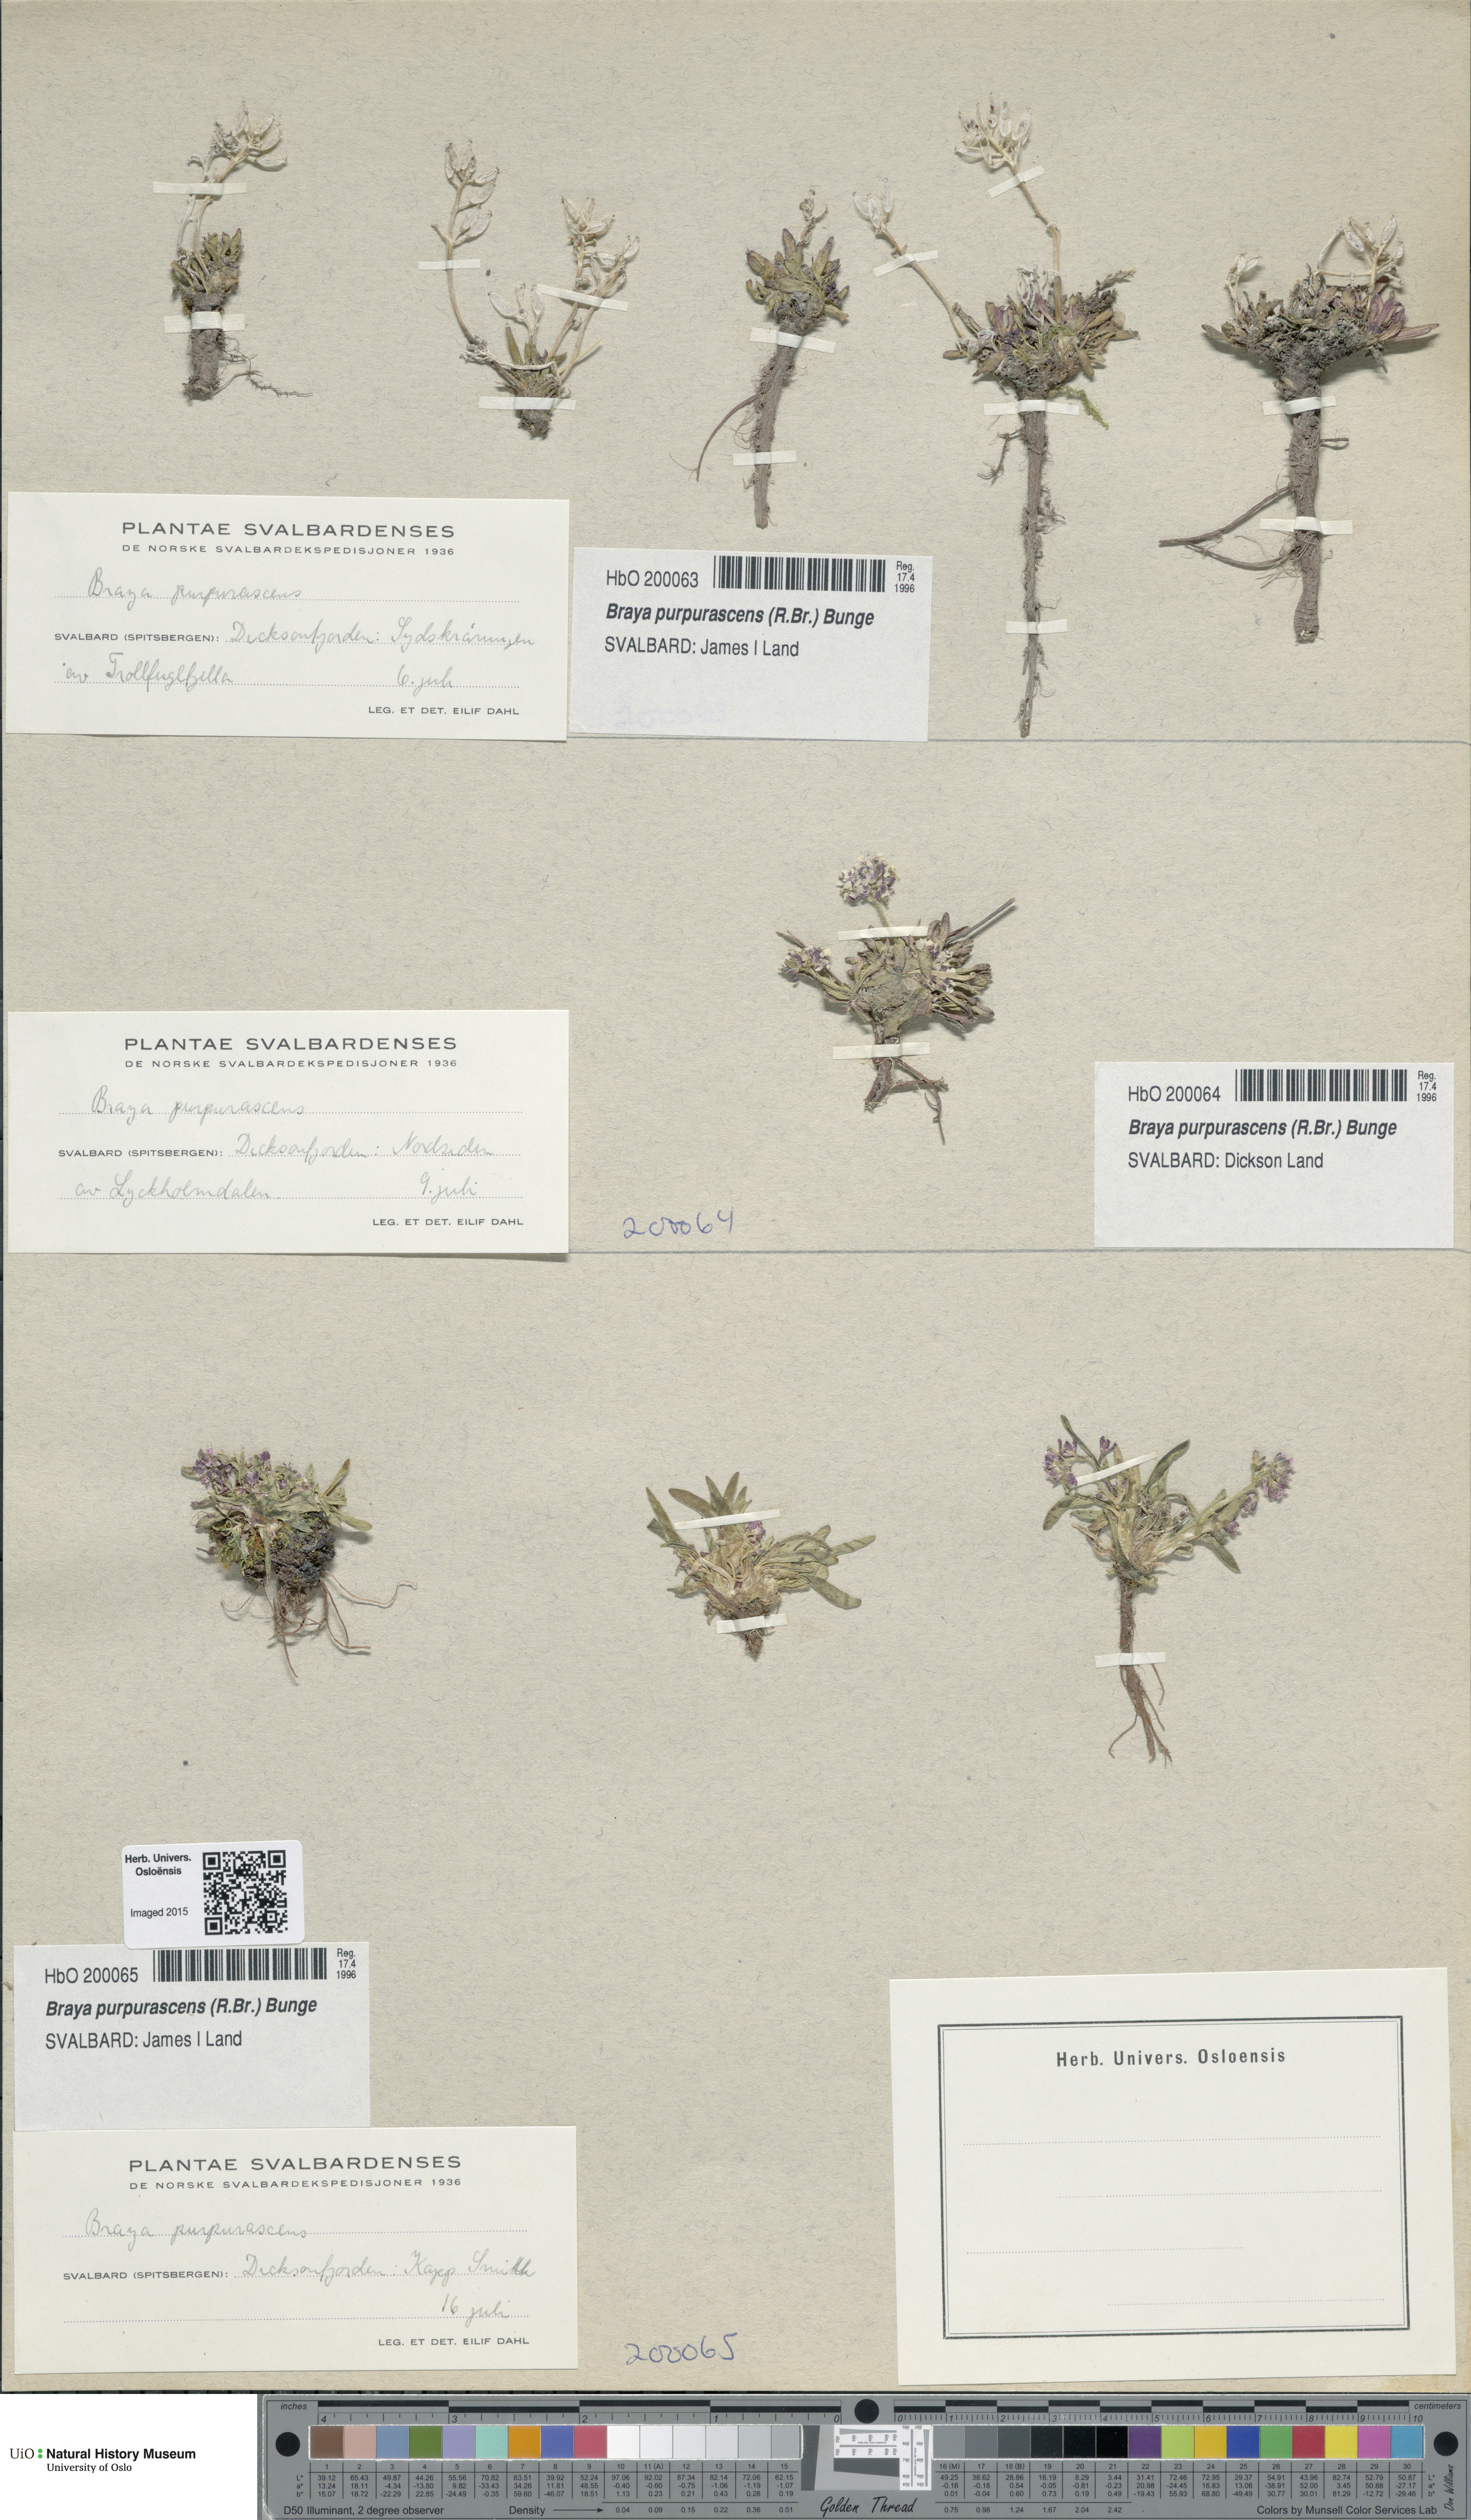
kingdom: Plantae
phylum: Tracheophyta
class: Magnoliopsida
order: Brassicales
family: Brassicaceae
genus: Braya
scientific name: Braya purpurascens
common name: Alpine braya
